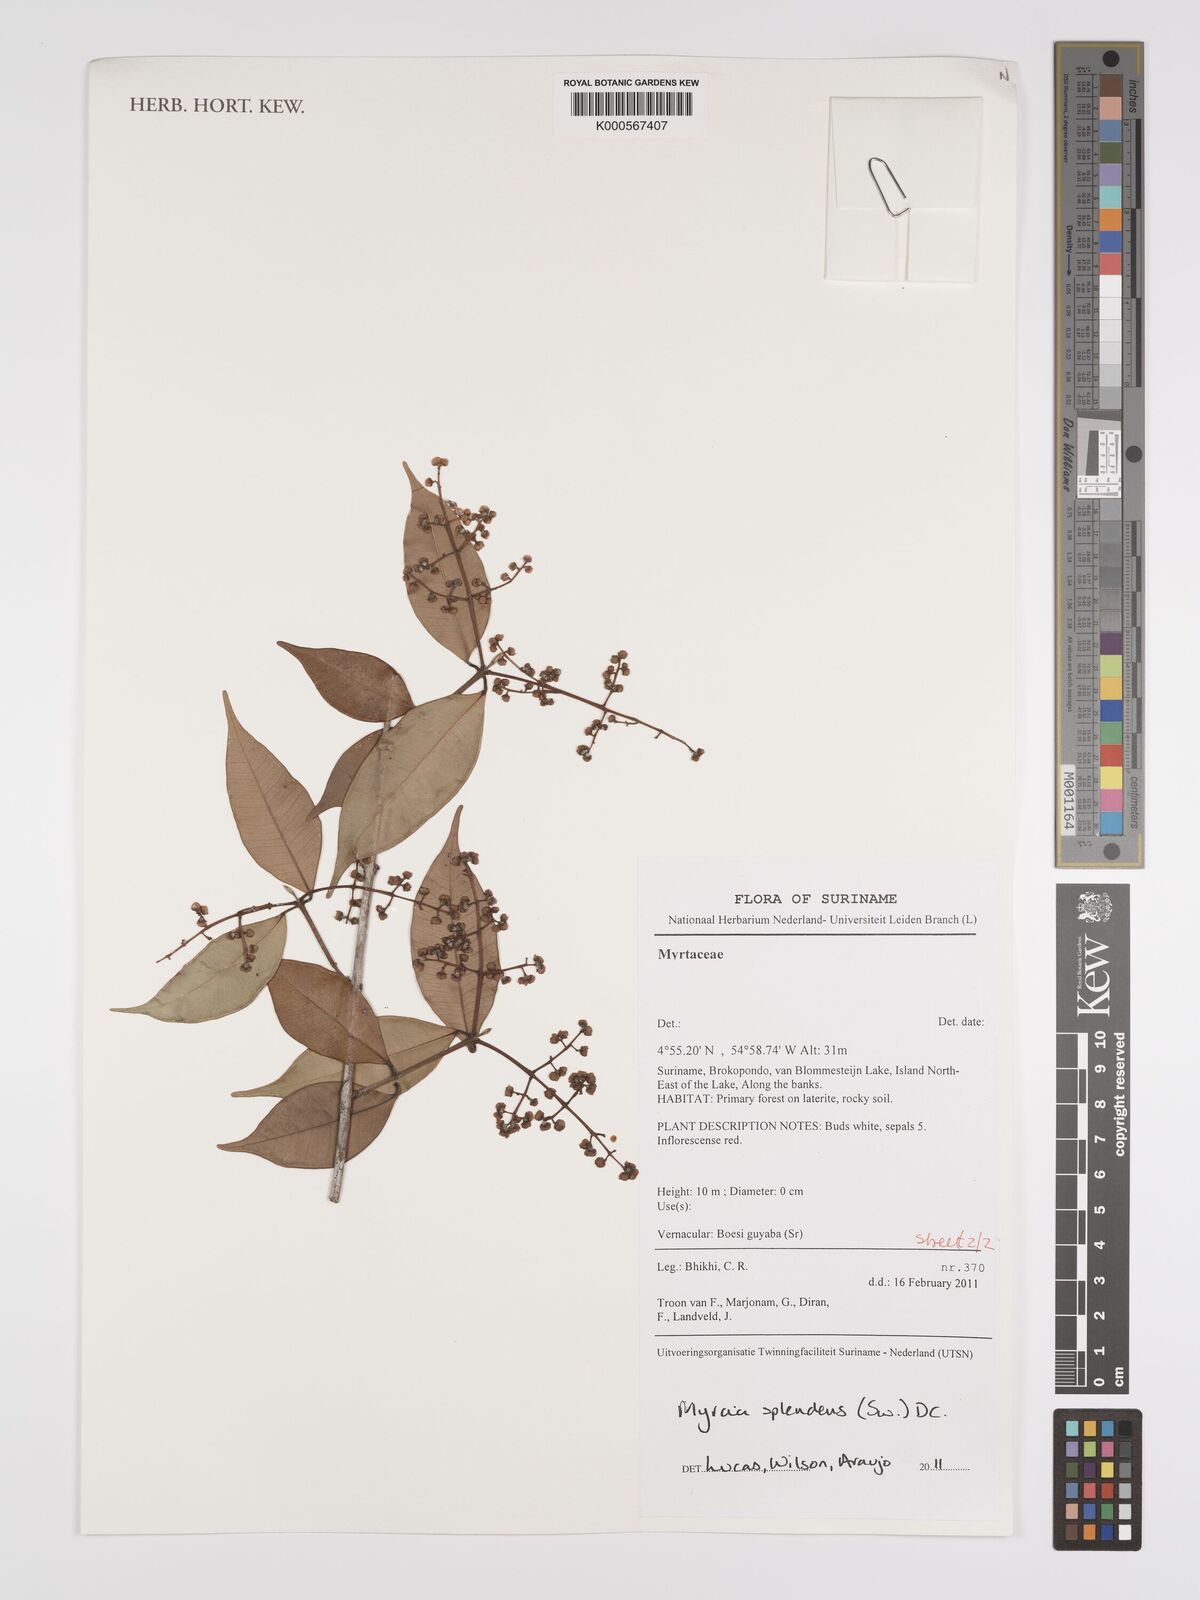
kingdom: Plantae
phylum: Tracheophyta
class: Magnoliopsida
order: Myrtales
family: Myrtaceae
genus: Myrcia
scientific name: Myrcia splendens
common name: Surinam cherry
